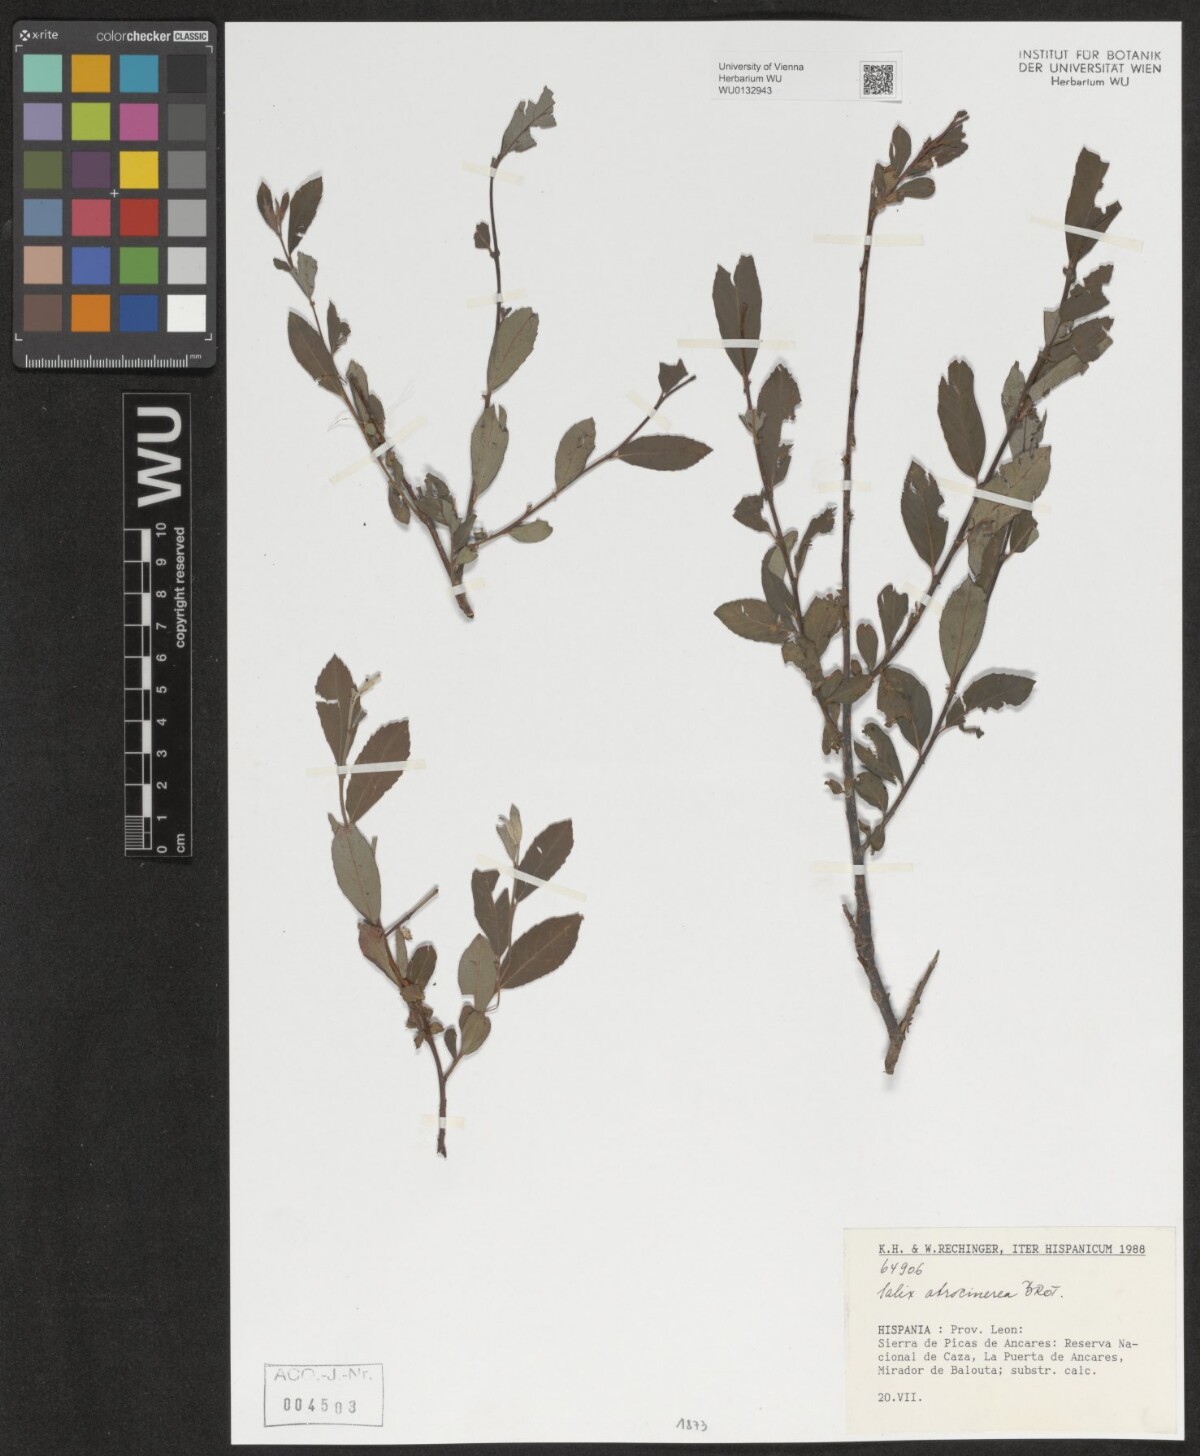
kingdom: Plantae
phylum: Tracheophyta
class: Magnoliopsida
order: Malpighiales
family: Salicaceae
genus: Salix
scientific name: Salix atrocinerea
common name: Rusty willow
